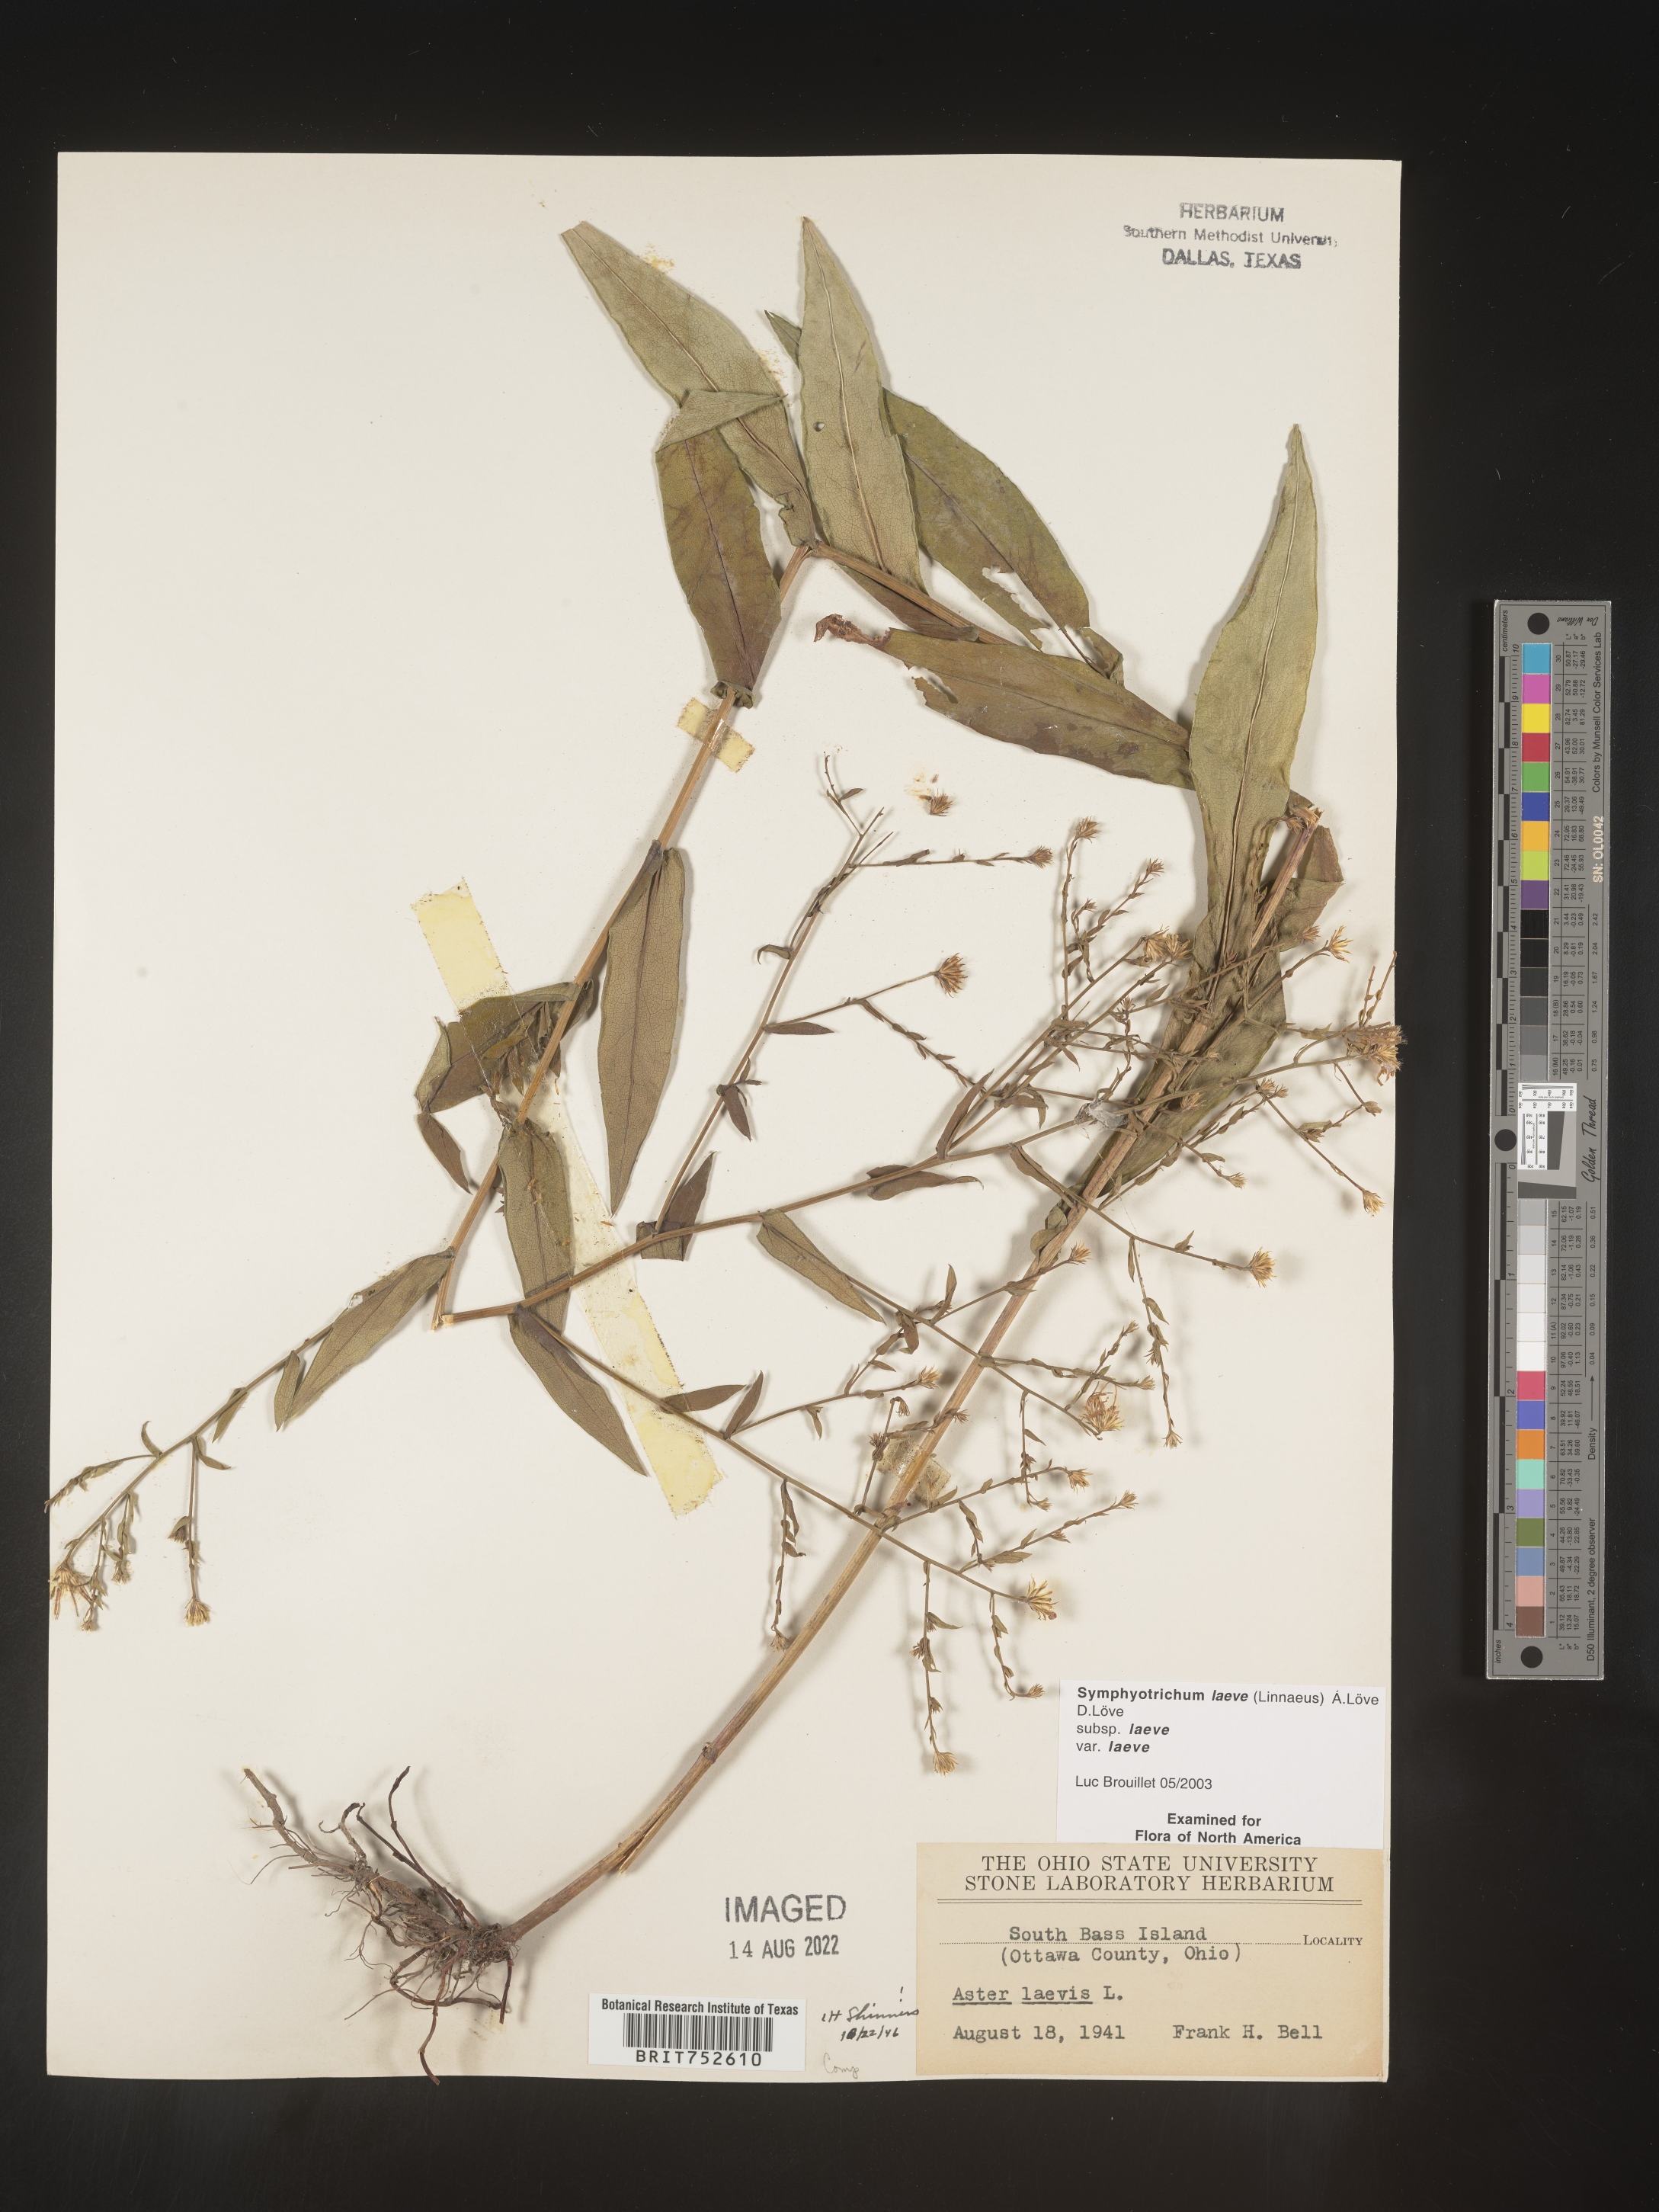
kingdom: Plantae
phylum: Tracheophyta
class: Magnoliopsida
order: Asterales
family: Asteraceae
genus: Symphyotrichum
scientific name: Symphyotrichum laeve
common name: Glaucous aster
